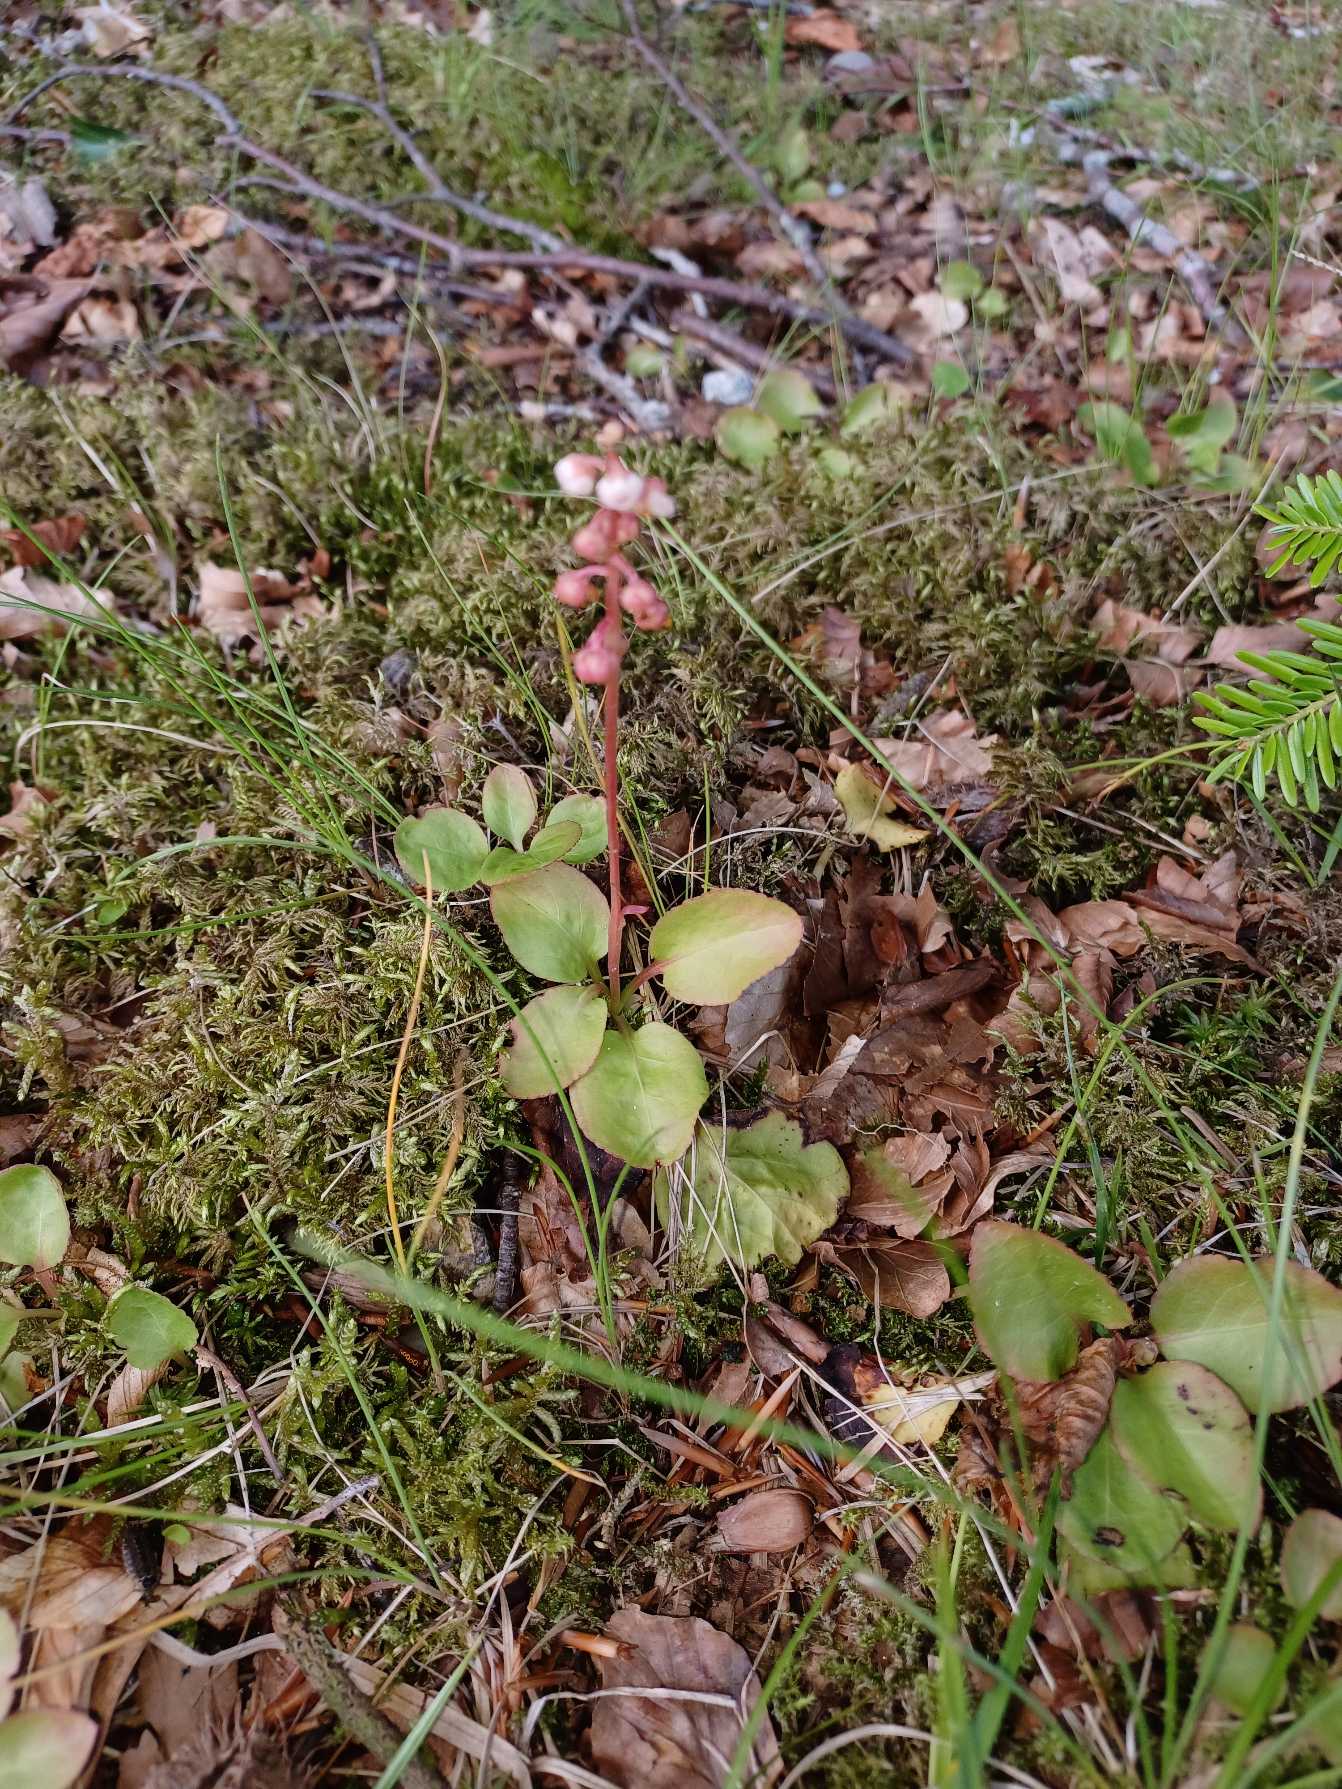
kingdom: Plantae
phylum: Tracheophyta
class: Magnoliopsida
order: Ericales
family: Ericaceae
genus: Pyrola
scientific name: Pyrola minor
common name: Liden vintergrøn
